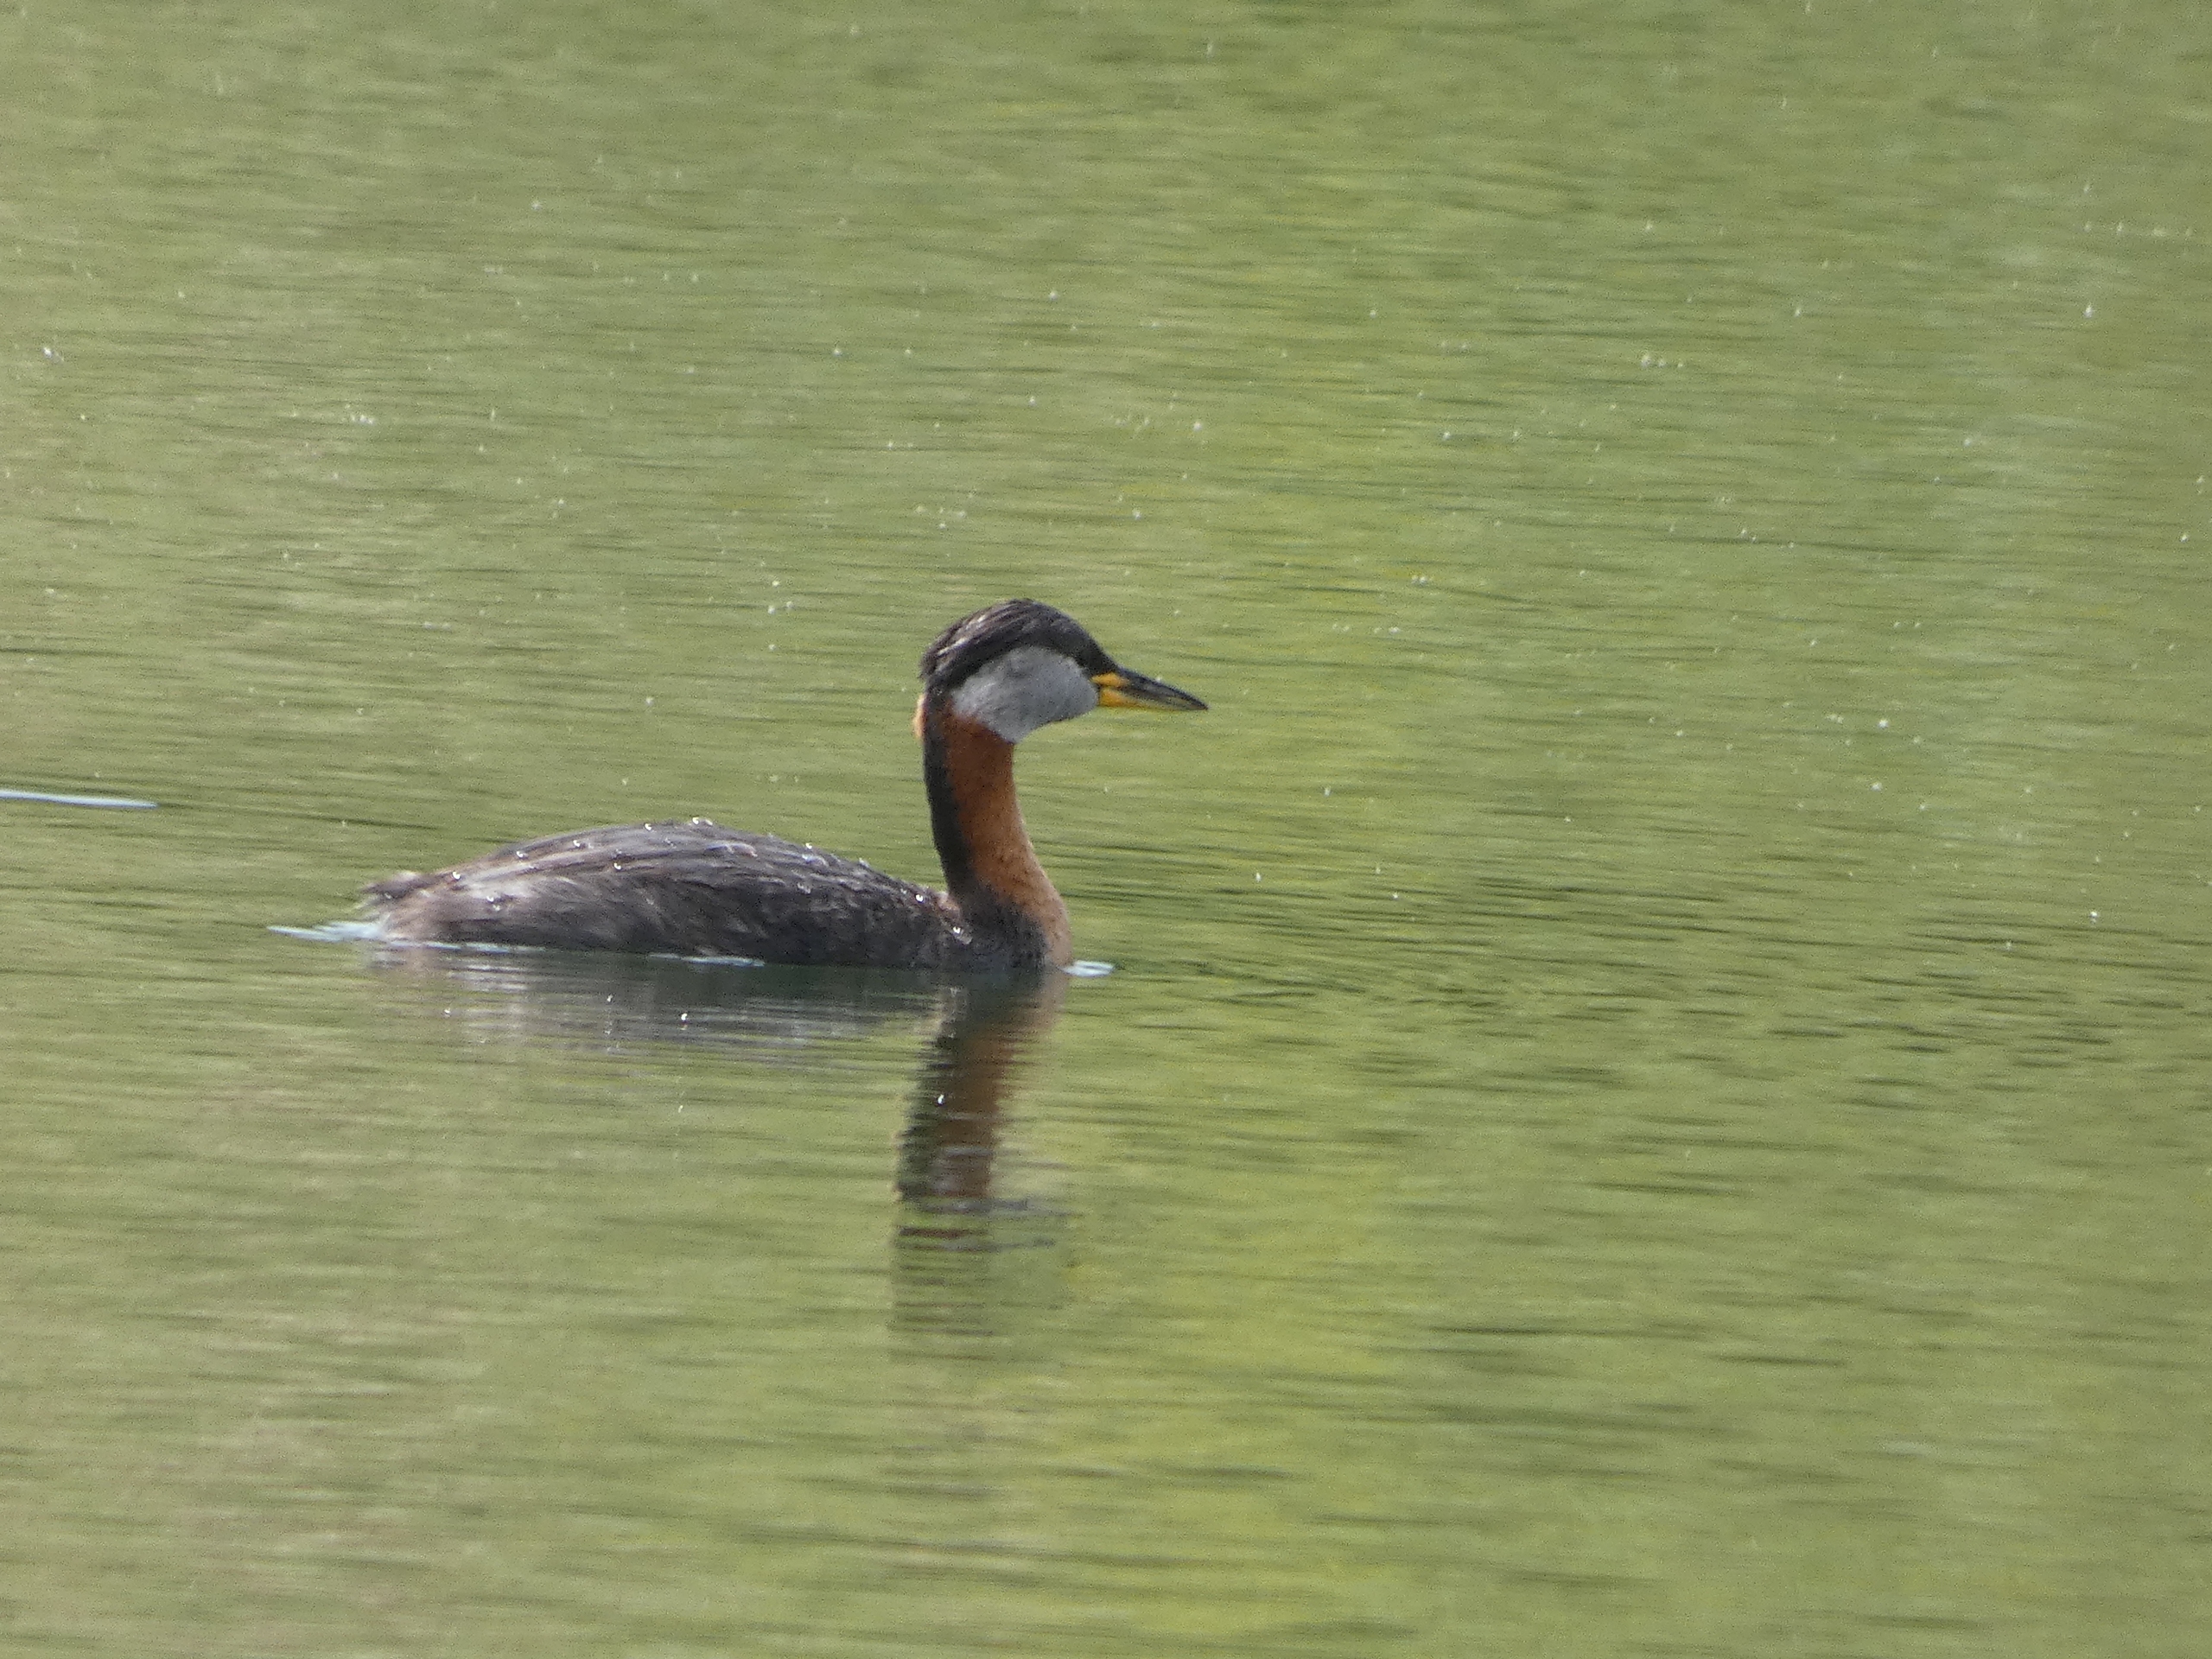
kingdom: Animalia
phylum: Chordata
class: Aves
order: Podicipediformes
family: Podicipedidae
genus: Podiceps
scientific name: Podiceps grisegena
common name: Gråstrubet lappedykker
